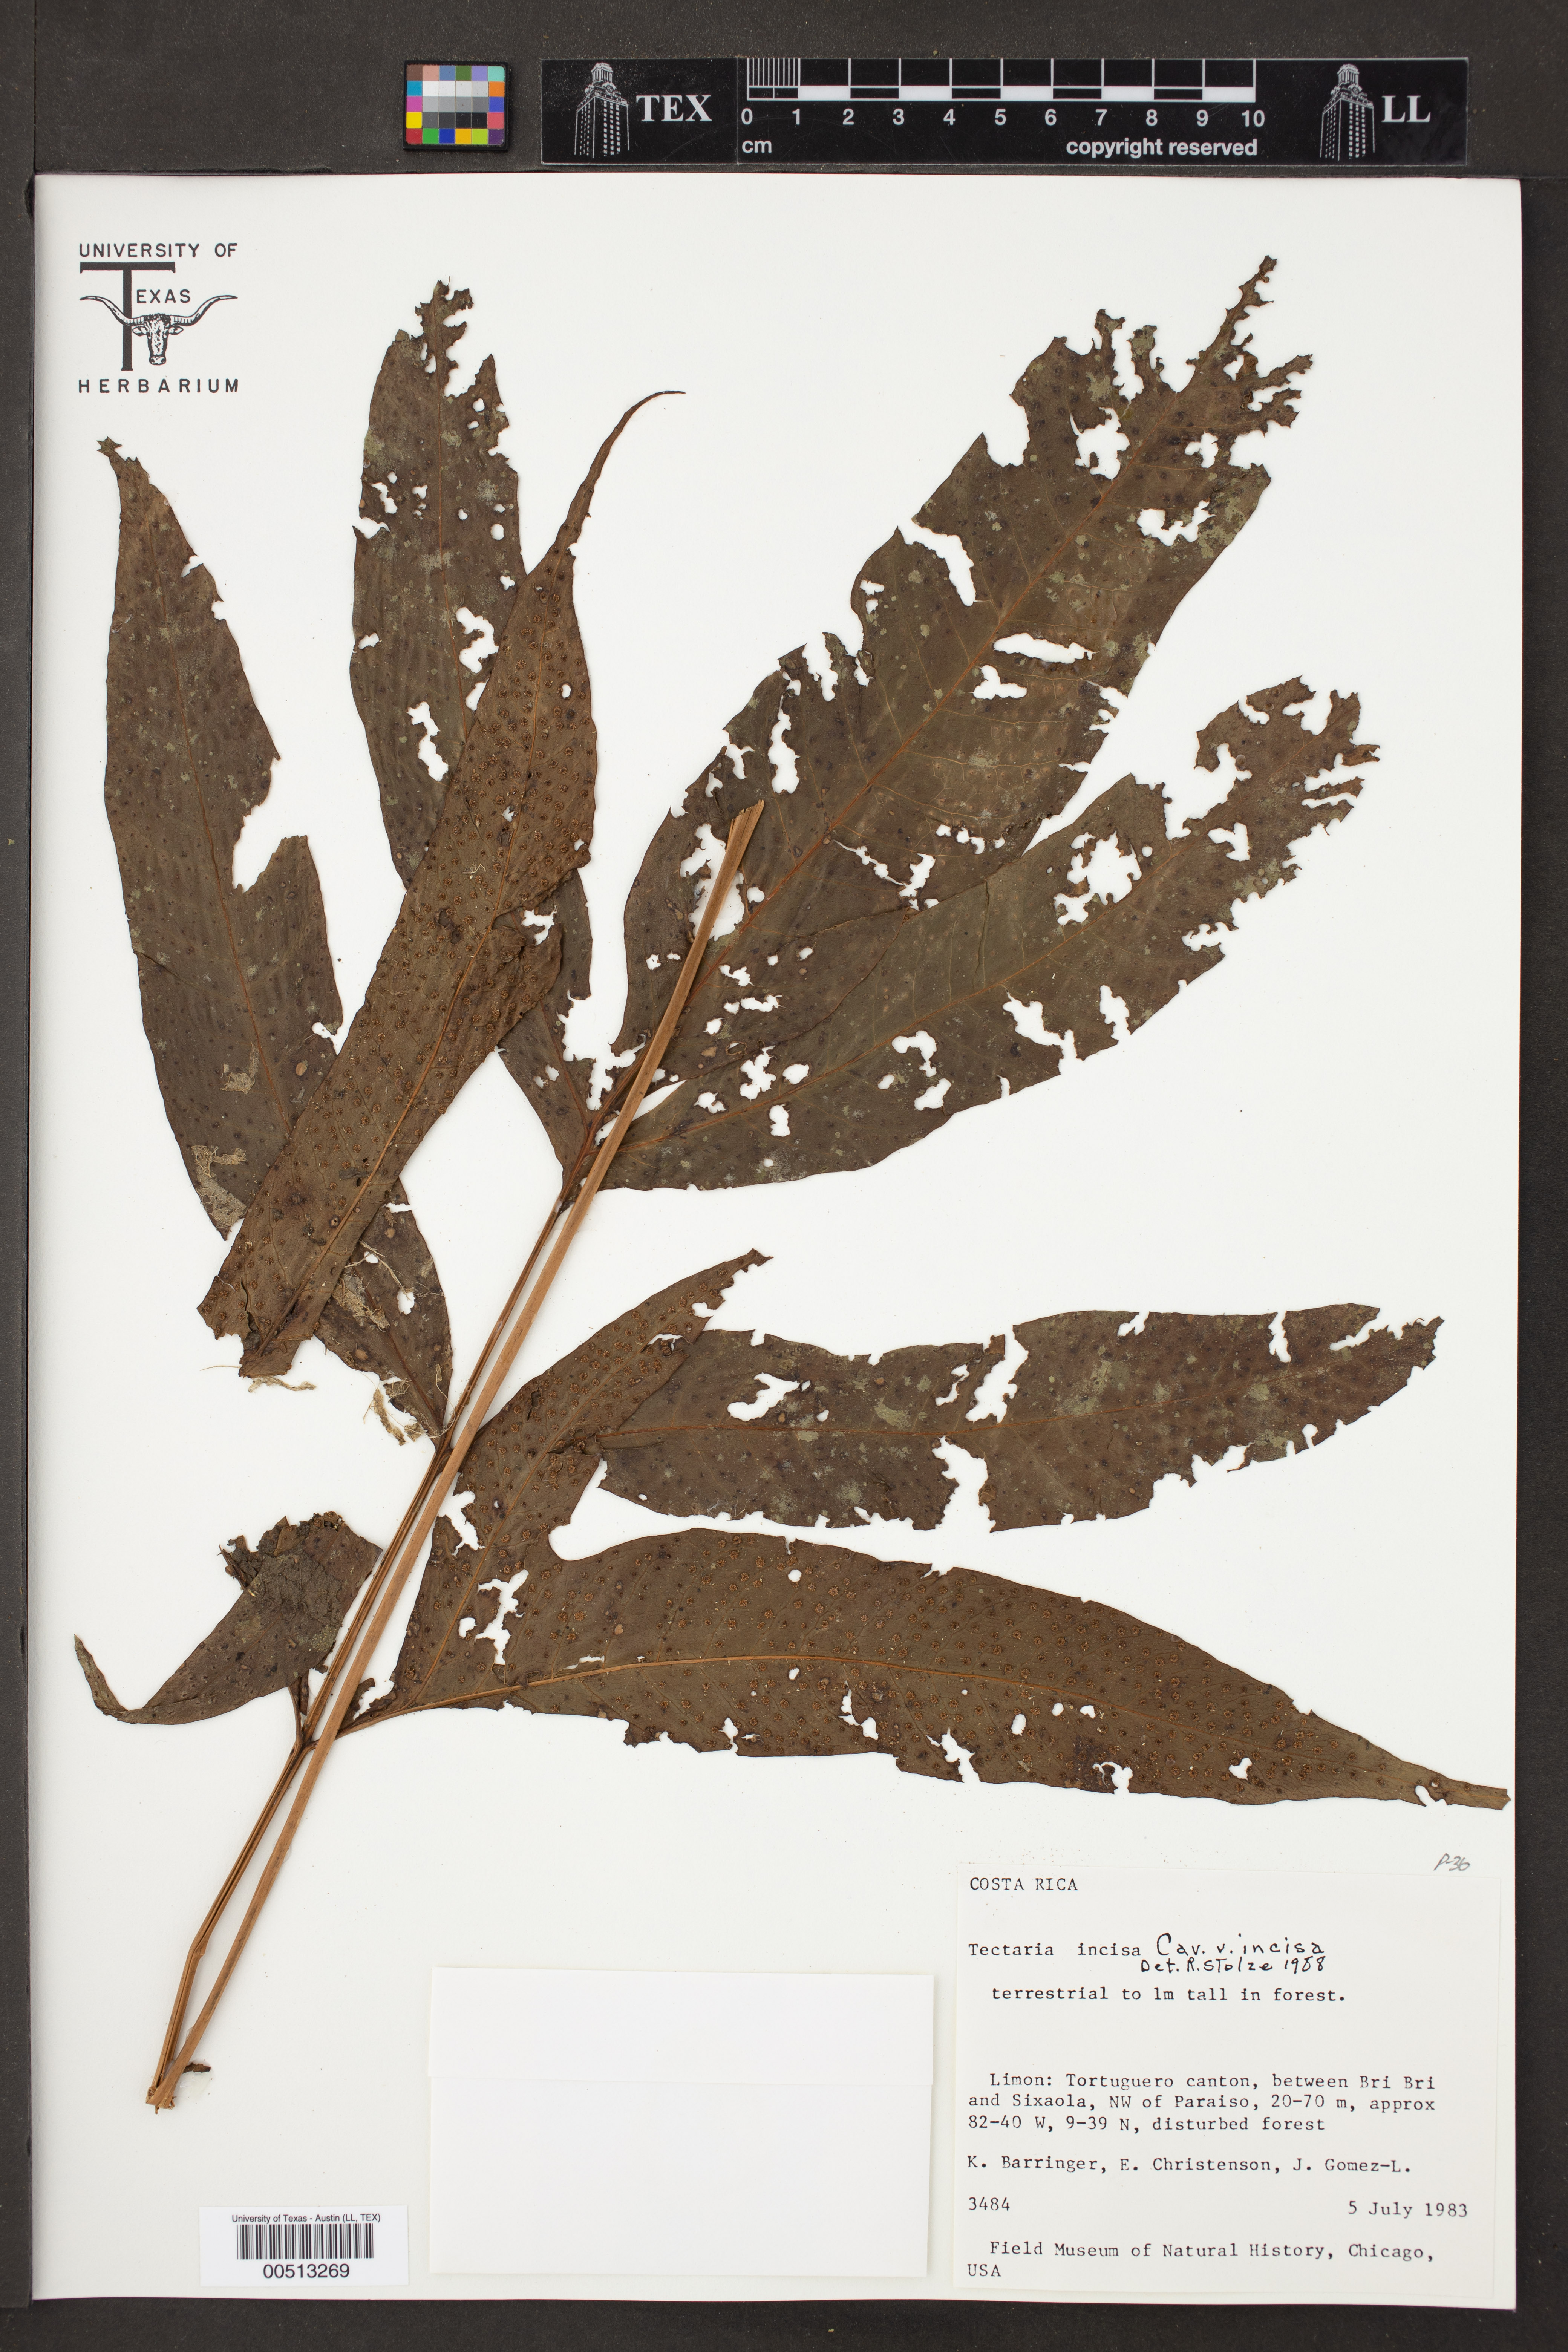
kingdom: Plantae
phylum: Tracheophyta
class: Polypodiopsida
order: Polypodiales
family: Tectariaceae
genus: Tectaria
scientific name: Tectaria incisa
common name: Incised halberd fern
